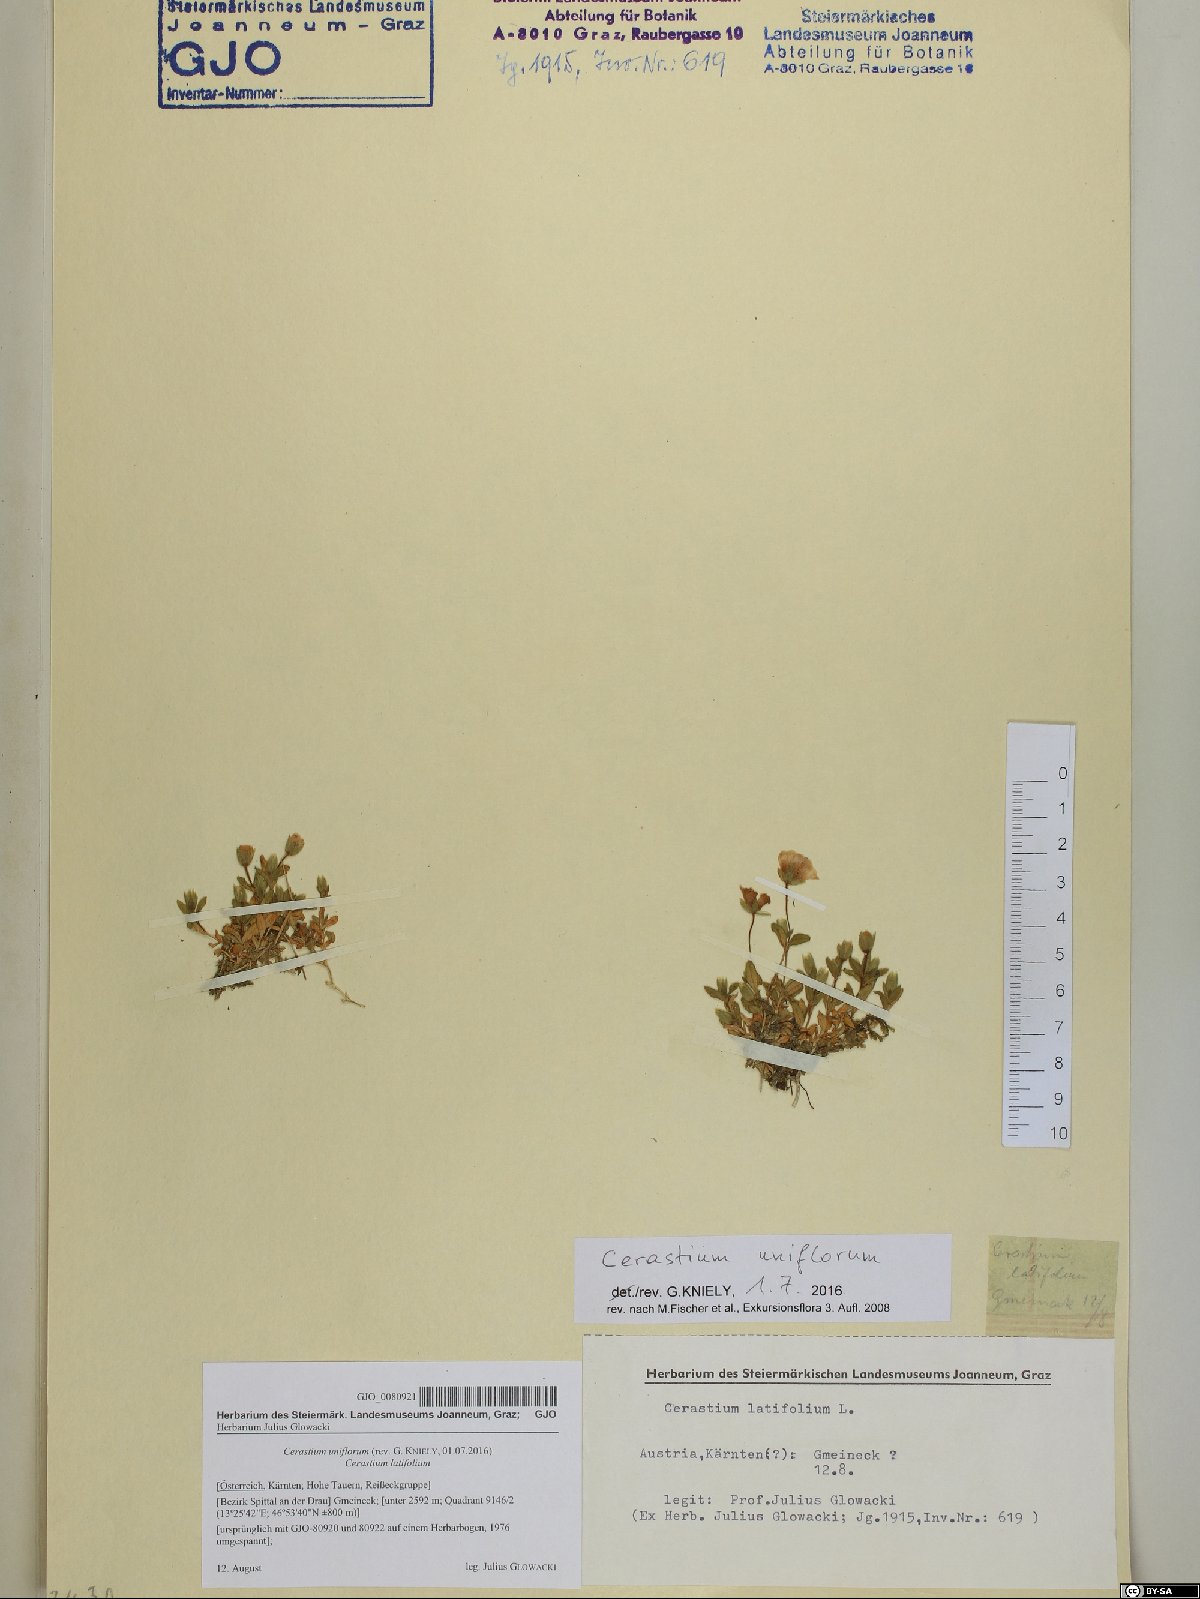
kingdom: Plantae
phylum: Tracheophyta
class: Magnoliopsida
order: Caryophyllales
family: Caryophyllaceae
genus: Cerastium
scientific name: Cerastium uniflorum
